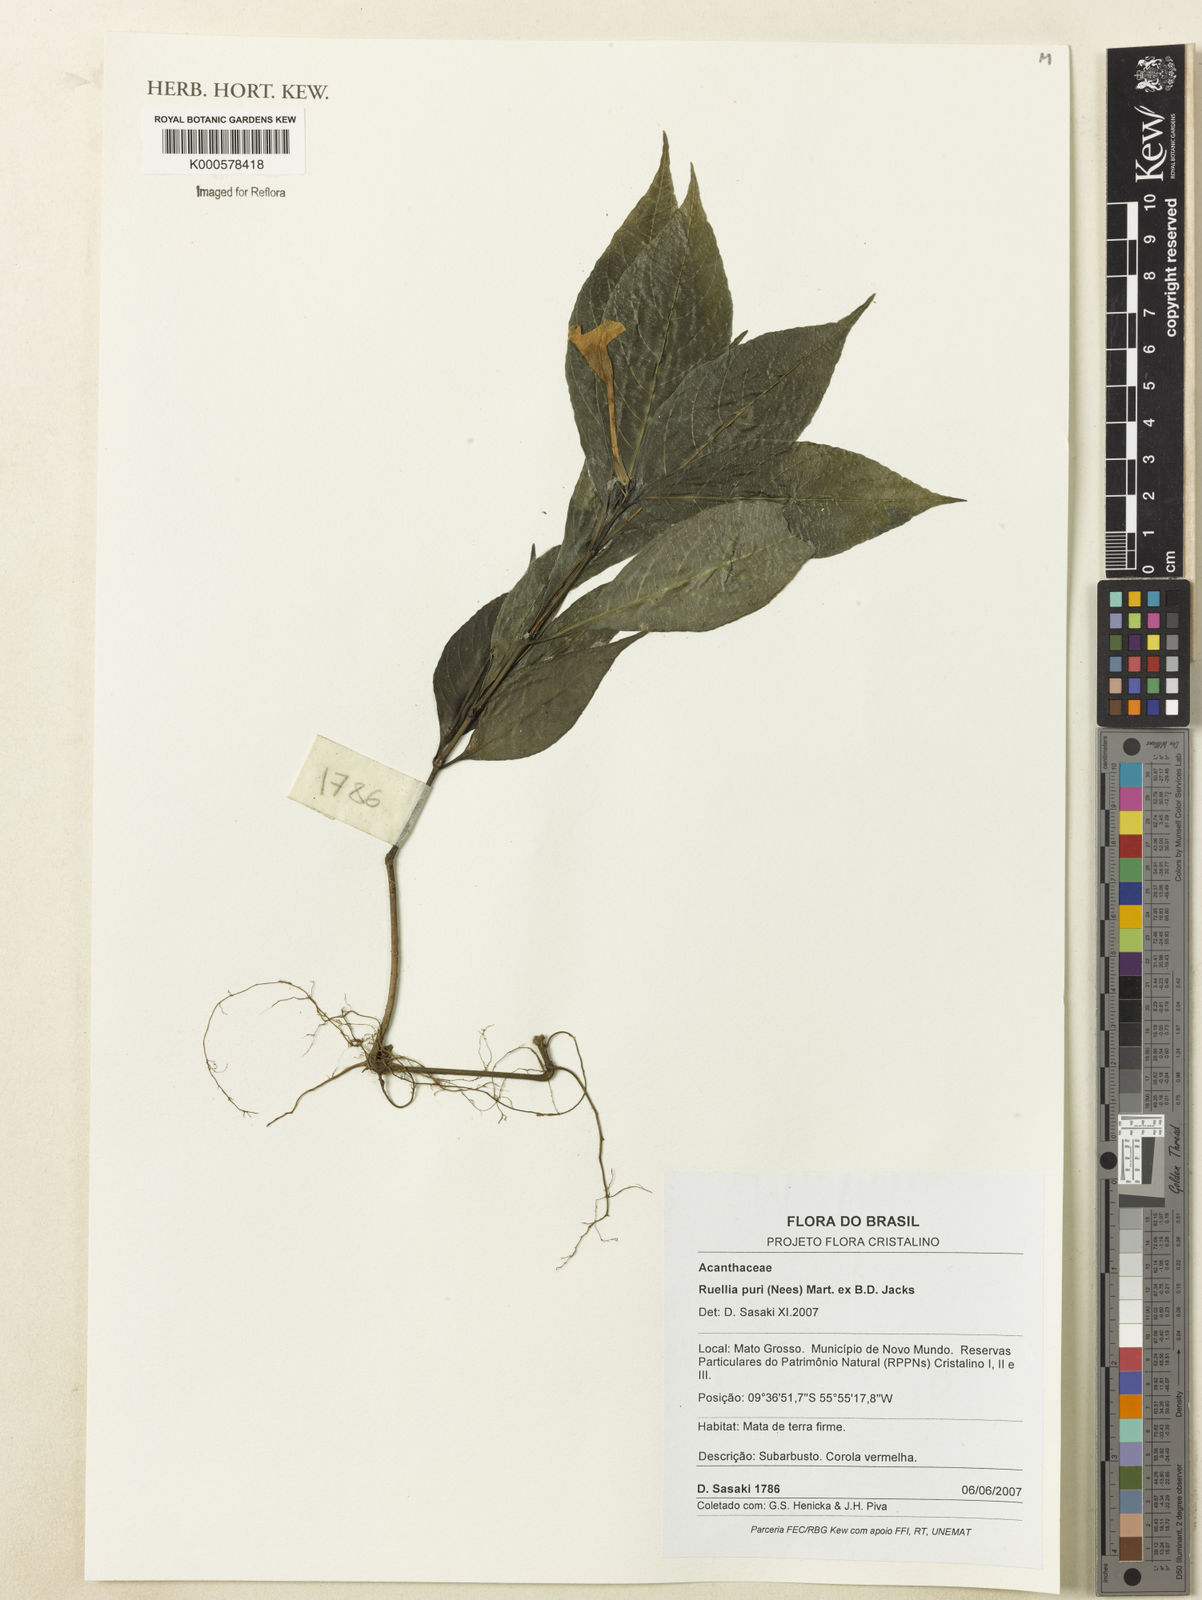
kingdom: Plantae
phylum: Tracheophyta
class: Magnoliopsida
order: Lamiales
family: Acanthaceae
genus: Ruellia
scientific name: Ruellia jussieuoides
